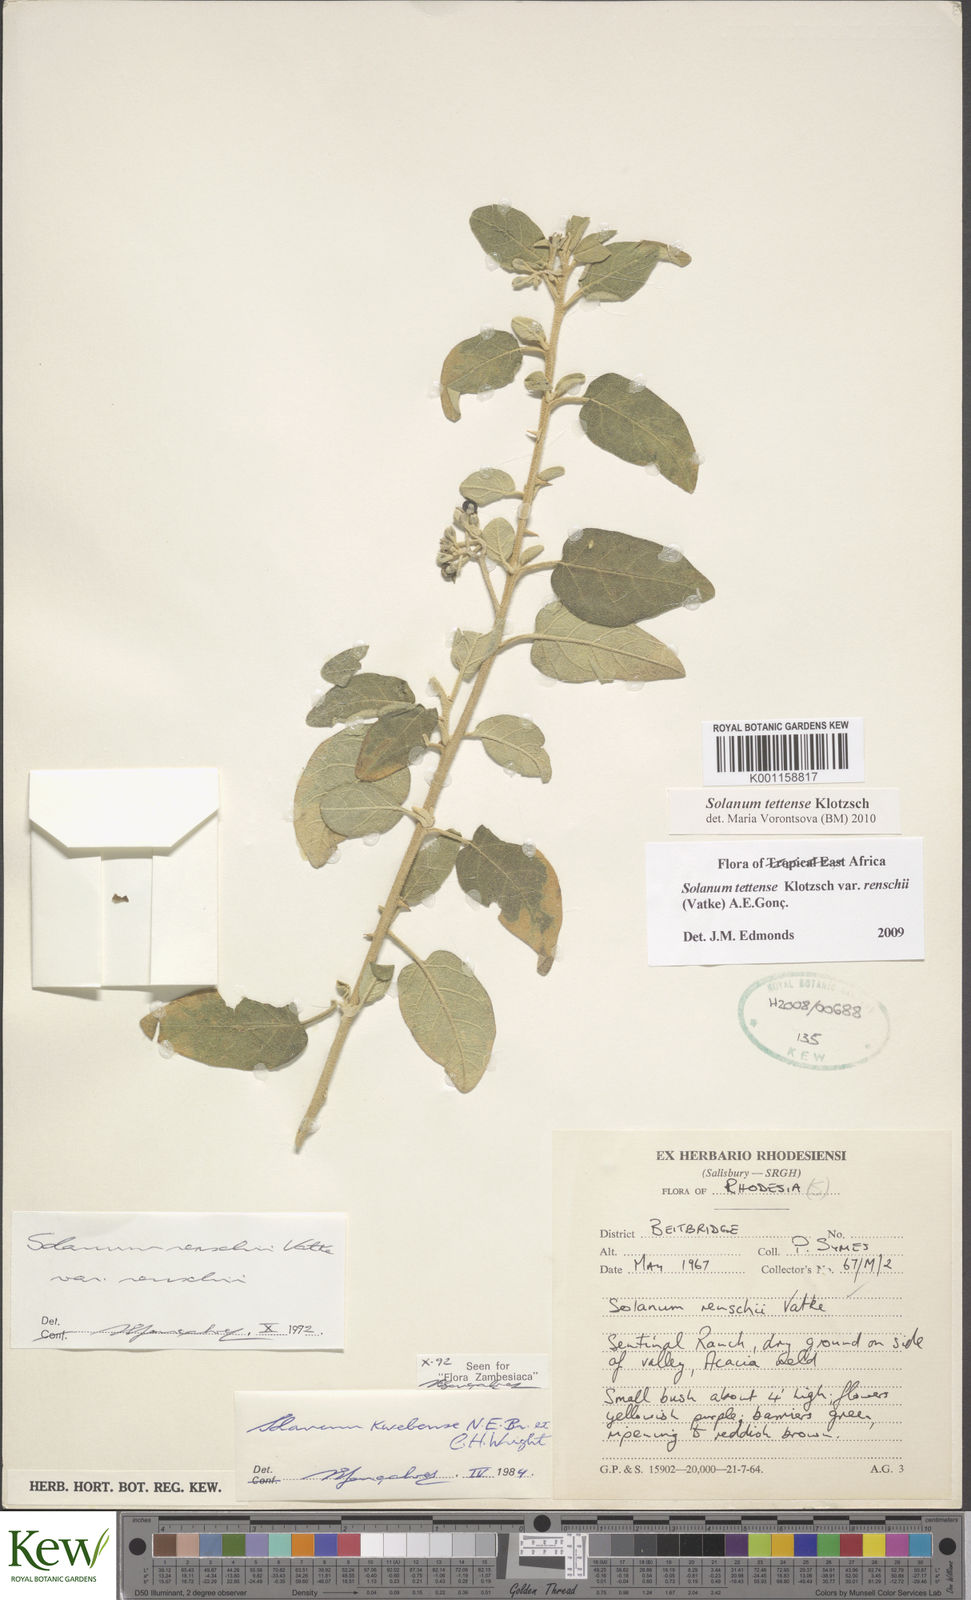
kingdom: Plantae
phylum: Tracheophyta
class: Magnoliopsida
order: Solanales
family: Solanaceae
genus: Solanum
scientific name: Solanum tettense
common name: Mozambique bitter apple
